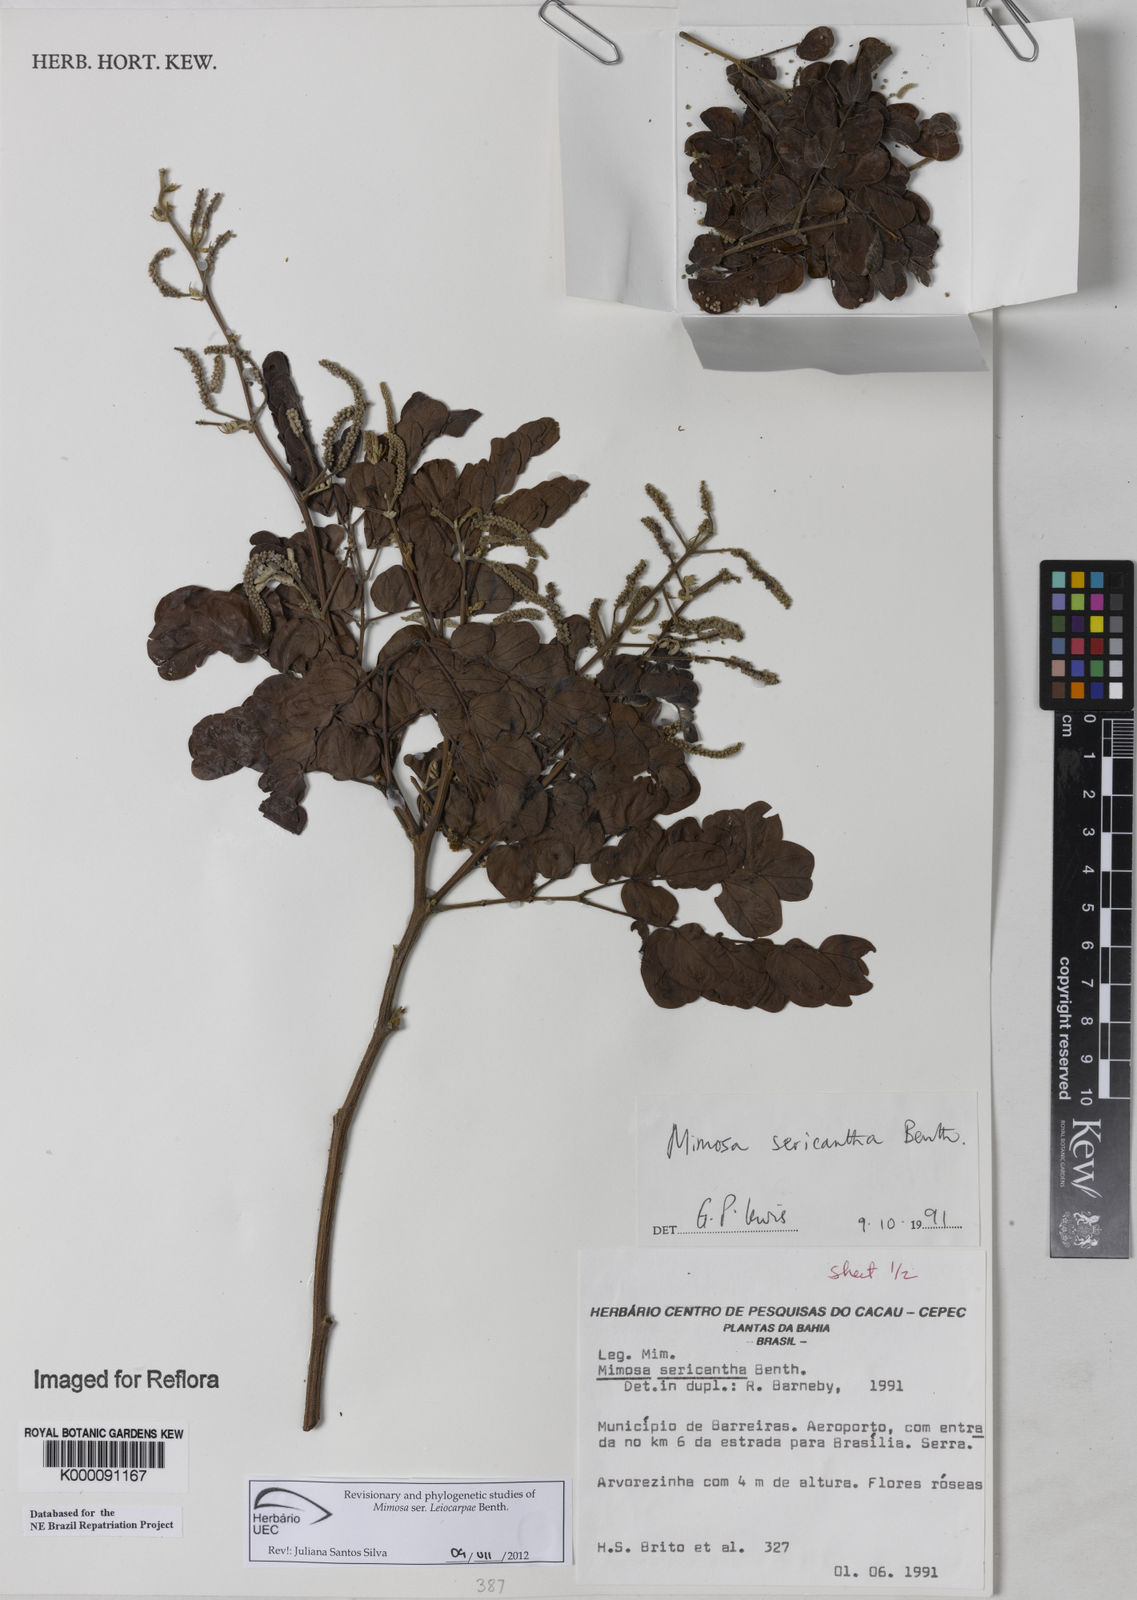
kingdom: Plantae
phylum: Tracheophyta
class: Magnoliopsida
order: Fabales
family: Fabaceae
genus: Mimosa
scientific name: Mimosa sericantha
